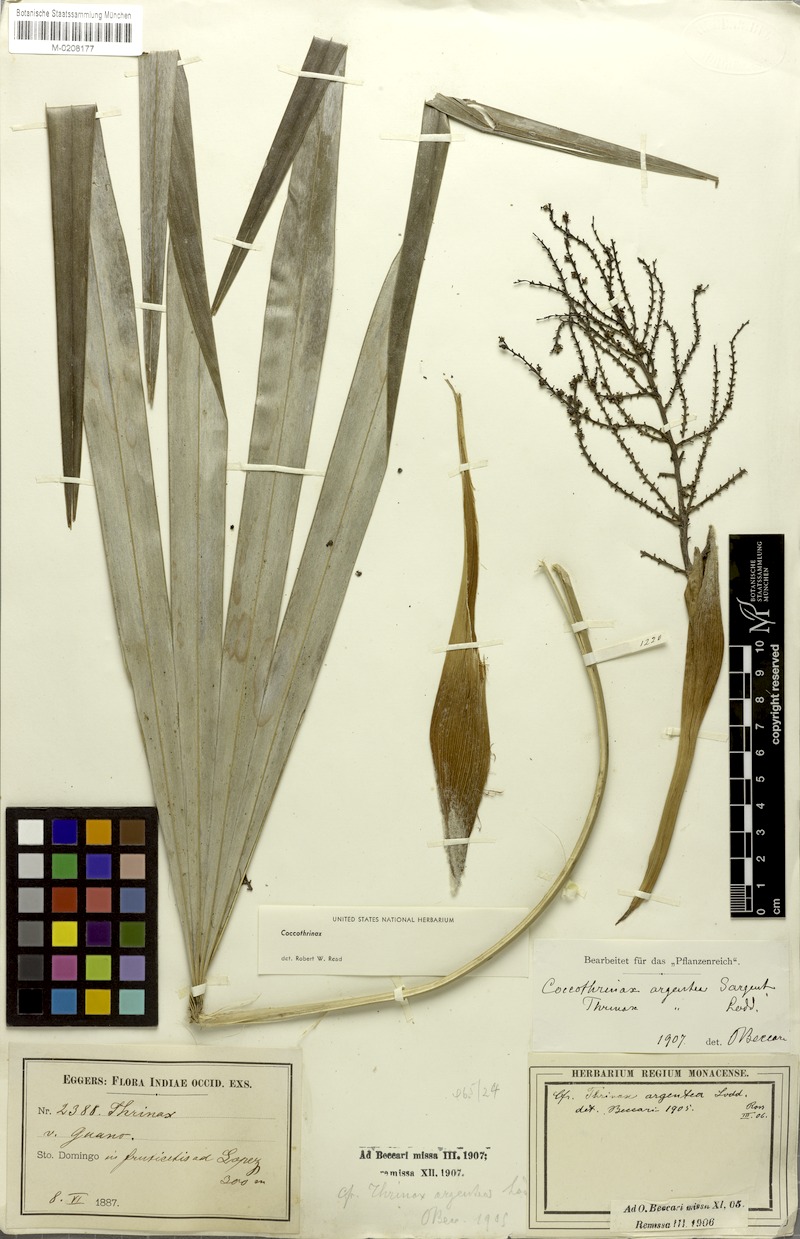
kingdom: Plantae
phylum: Tracheophyta
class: Liliopsida
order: Arecales
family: Arecaceae
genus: Coccothrinax
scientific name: Coccothrinax argentea
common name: Broom palm
